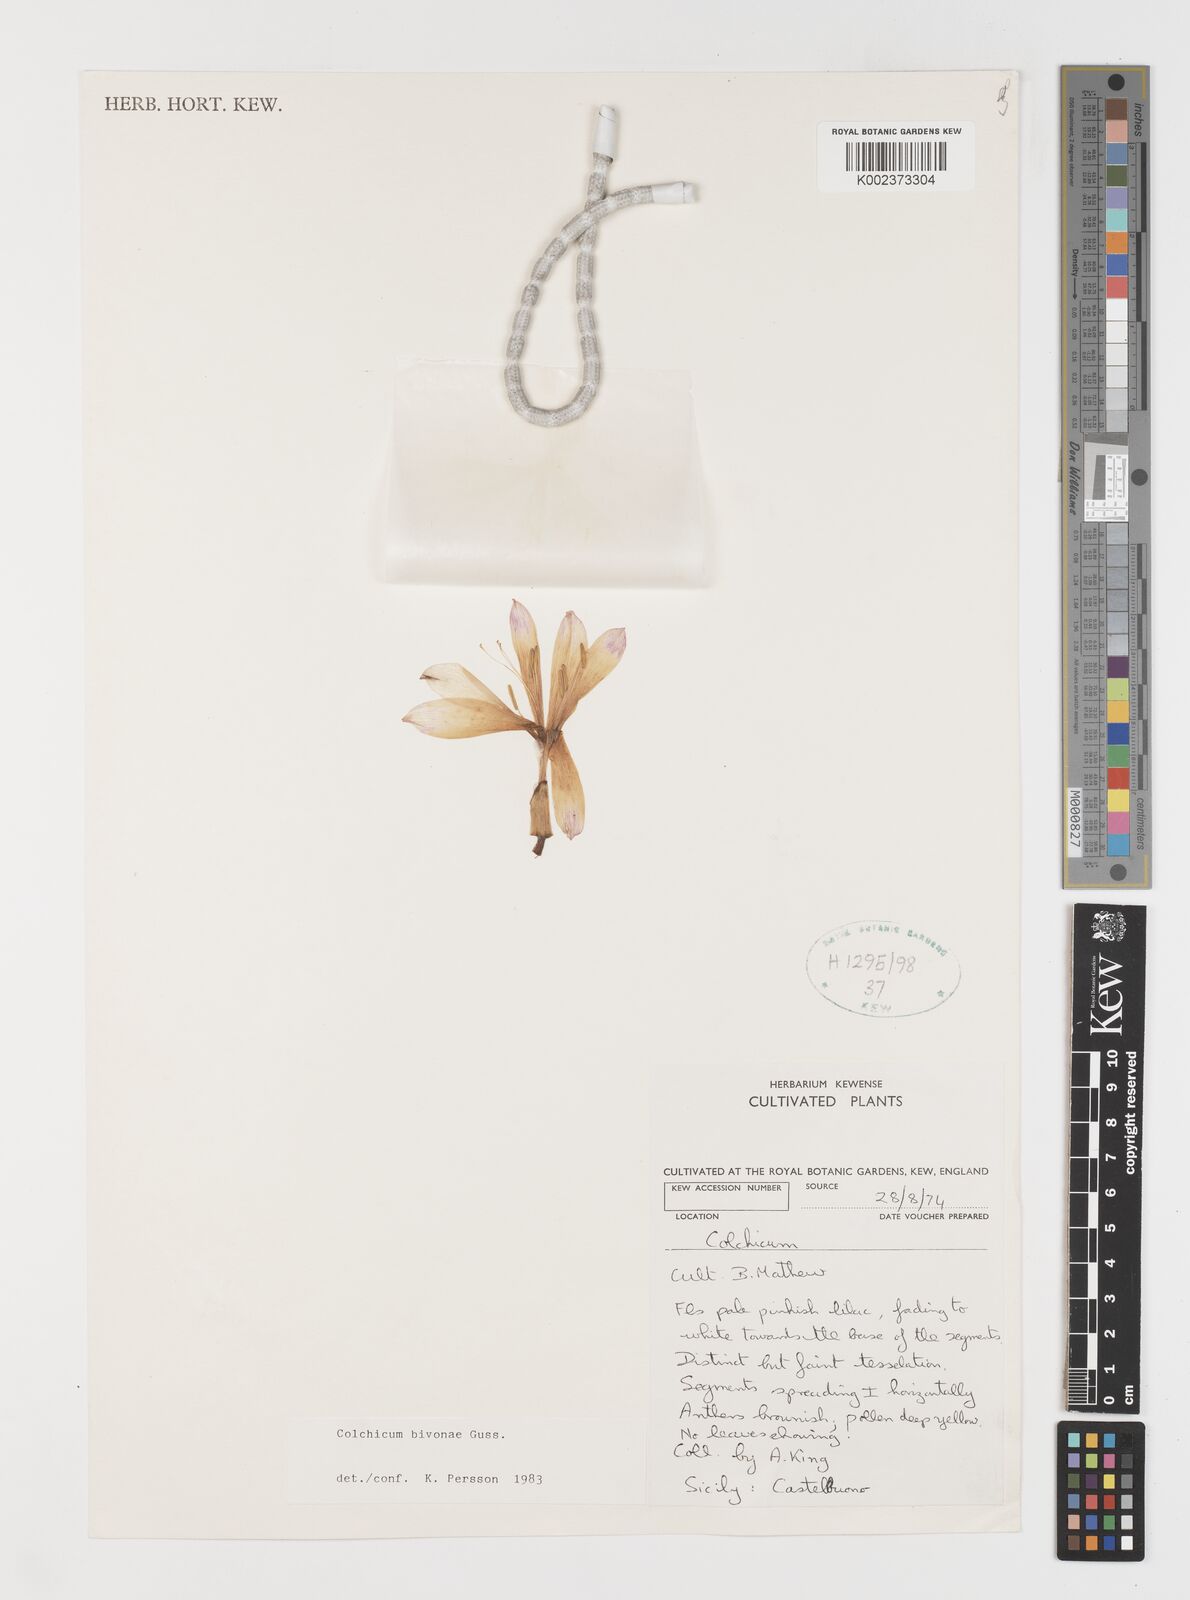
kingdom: Plantae
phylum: Tracheophyta
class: Liliopsida
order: Liliales
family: Colchicaceae
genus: Colchicum
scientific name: Colchicum bivonae
